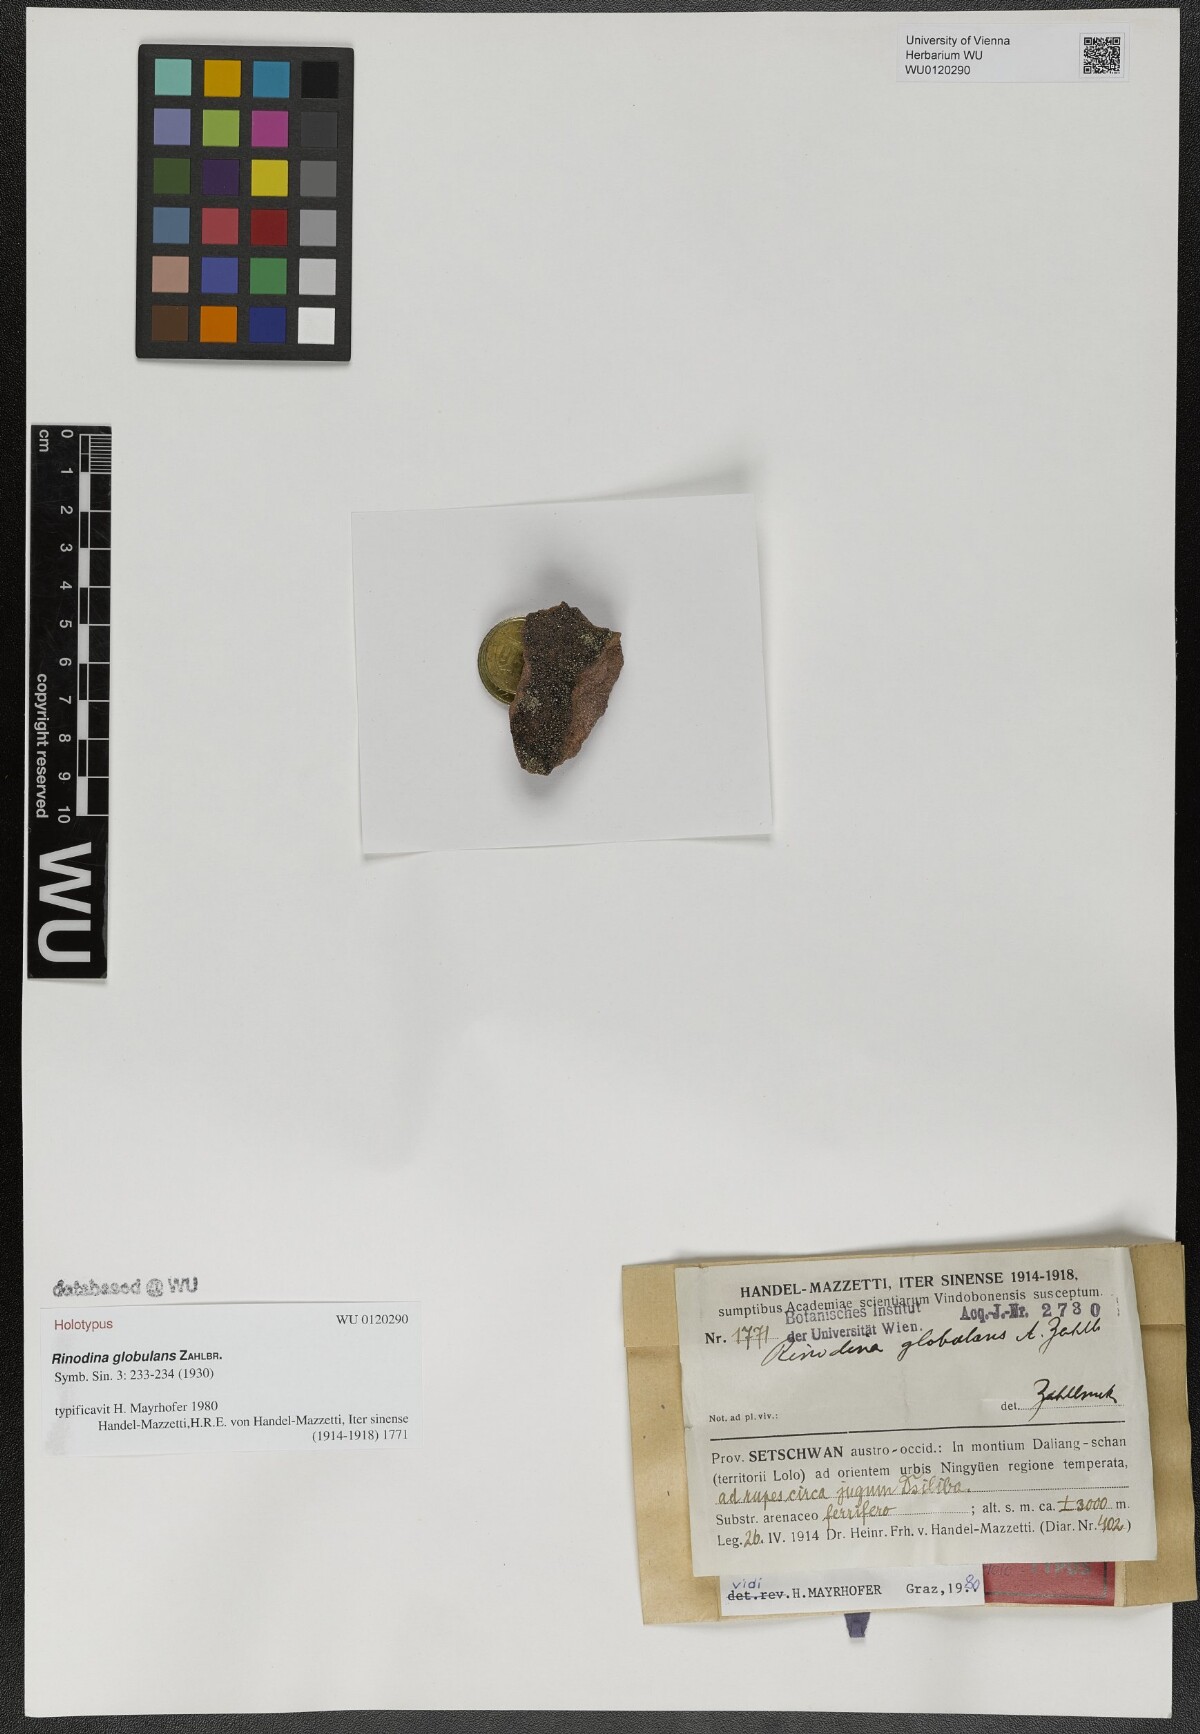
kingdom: Fungi
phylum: Ascomycota
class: Lecanoromycetes
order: Caliciales
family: Physciaceae
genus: Rinodina
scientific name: Rinodina
